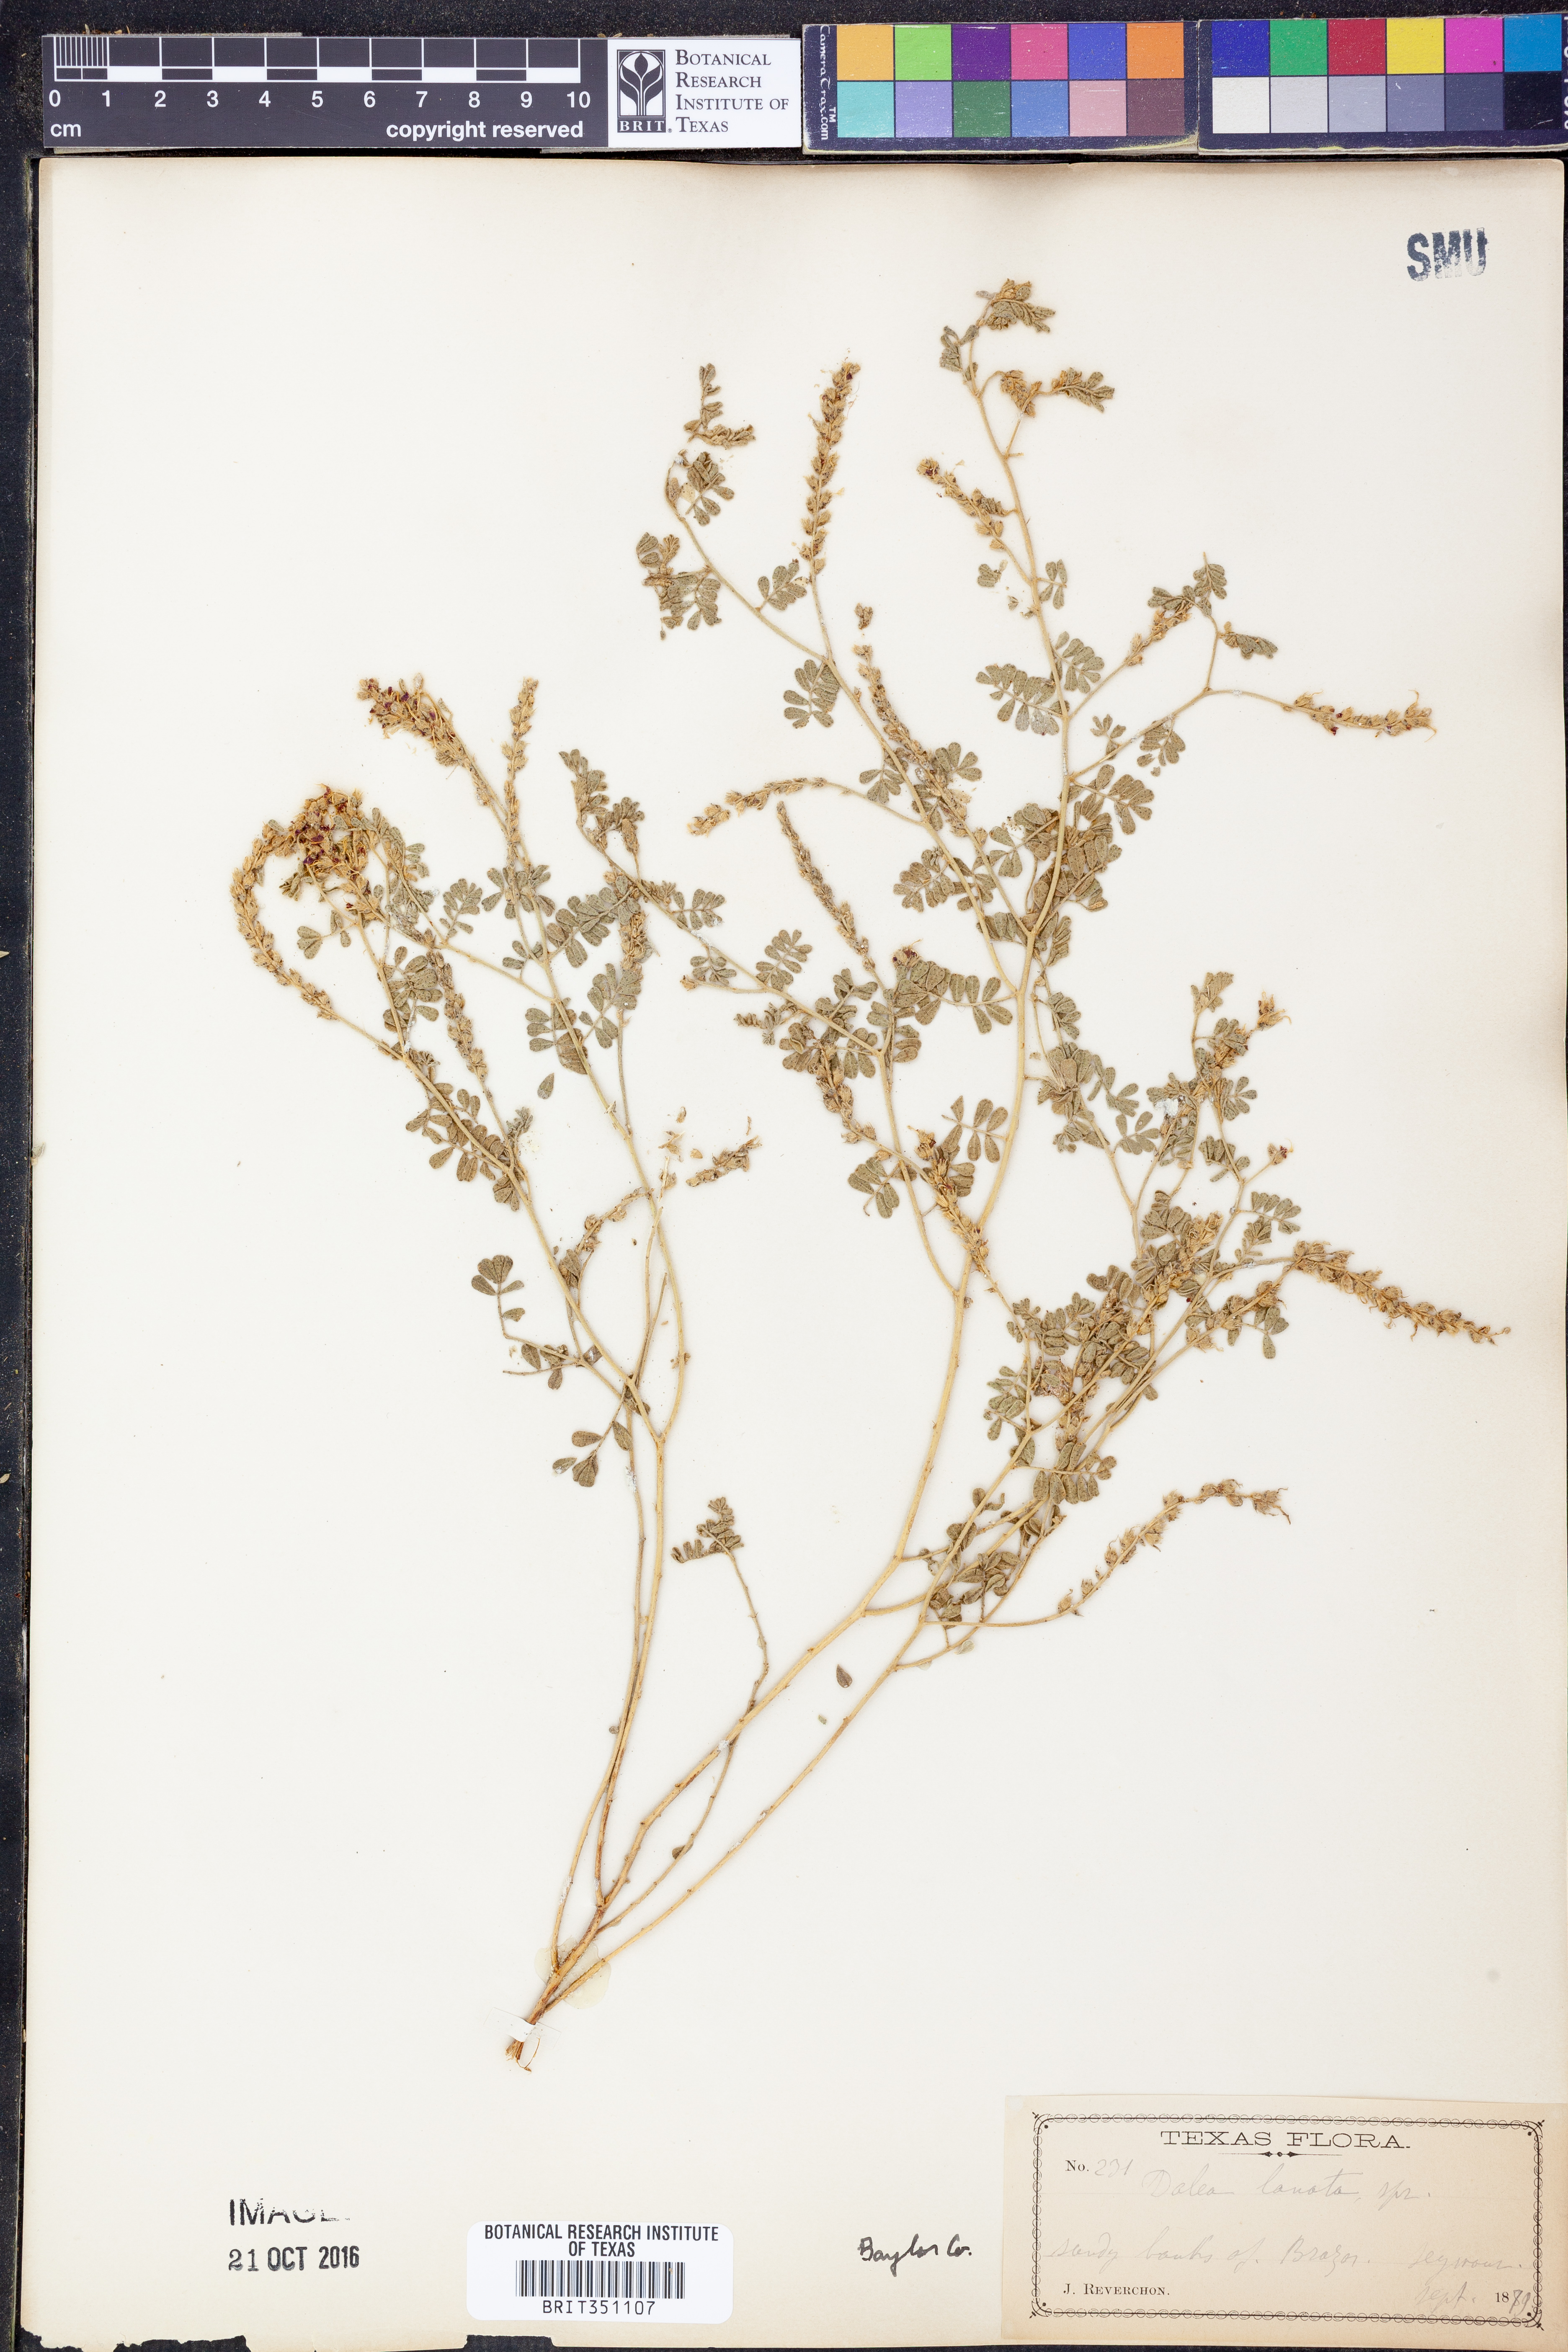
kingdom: Plantae
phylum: Tracheophyta
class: Magnoliopsida
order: Fabales
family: Fabaceae
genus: Dalea
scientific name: Dalea lanata
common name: Woolly dalea
